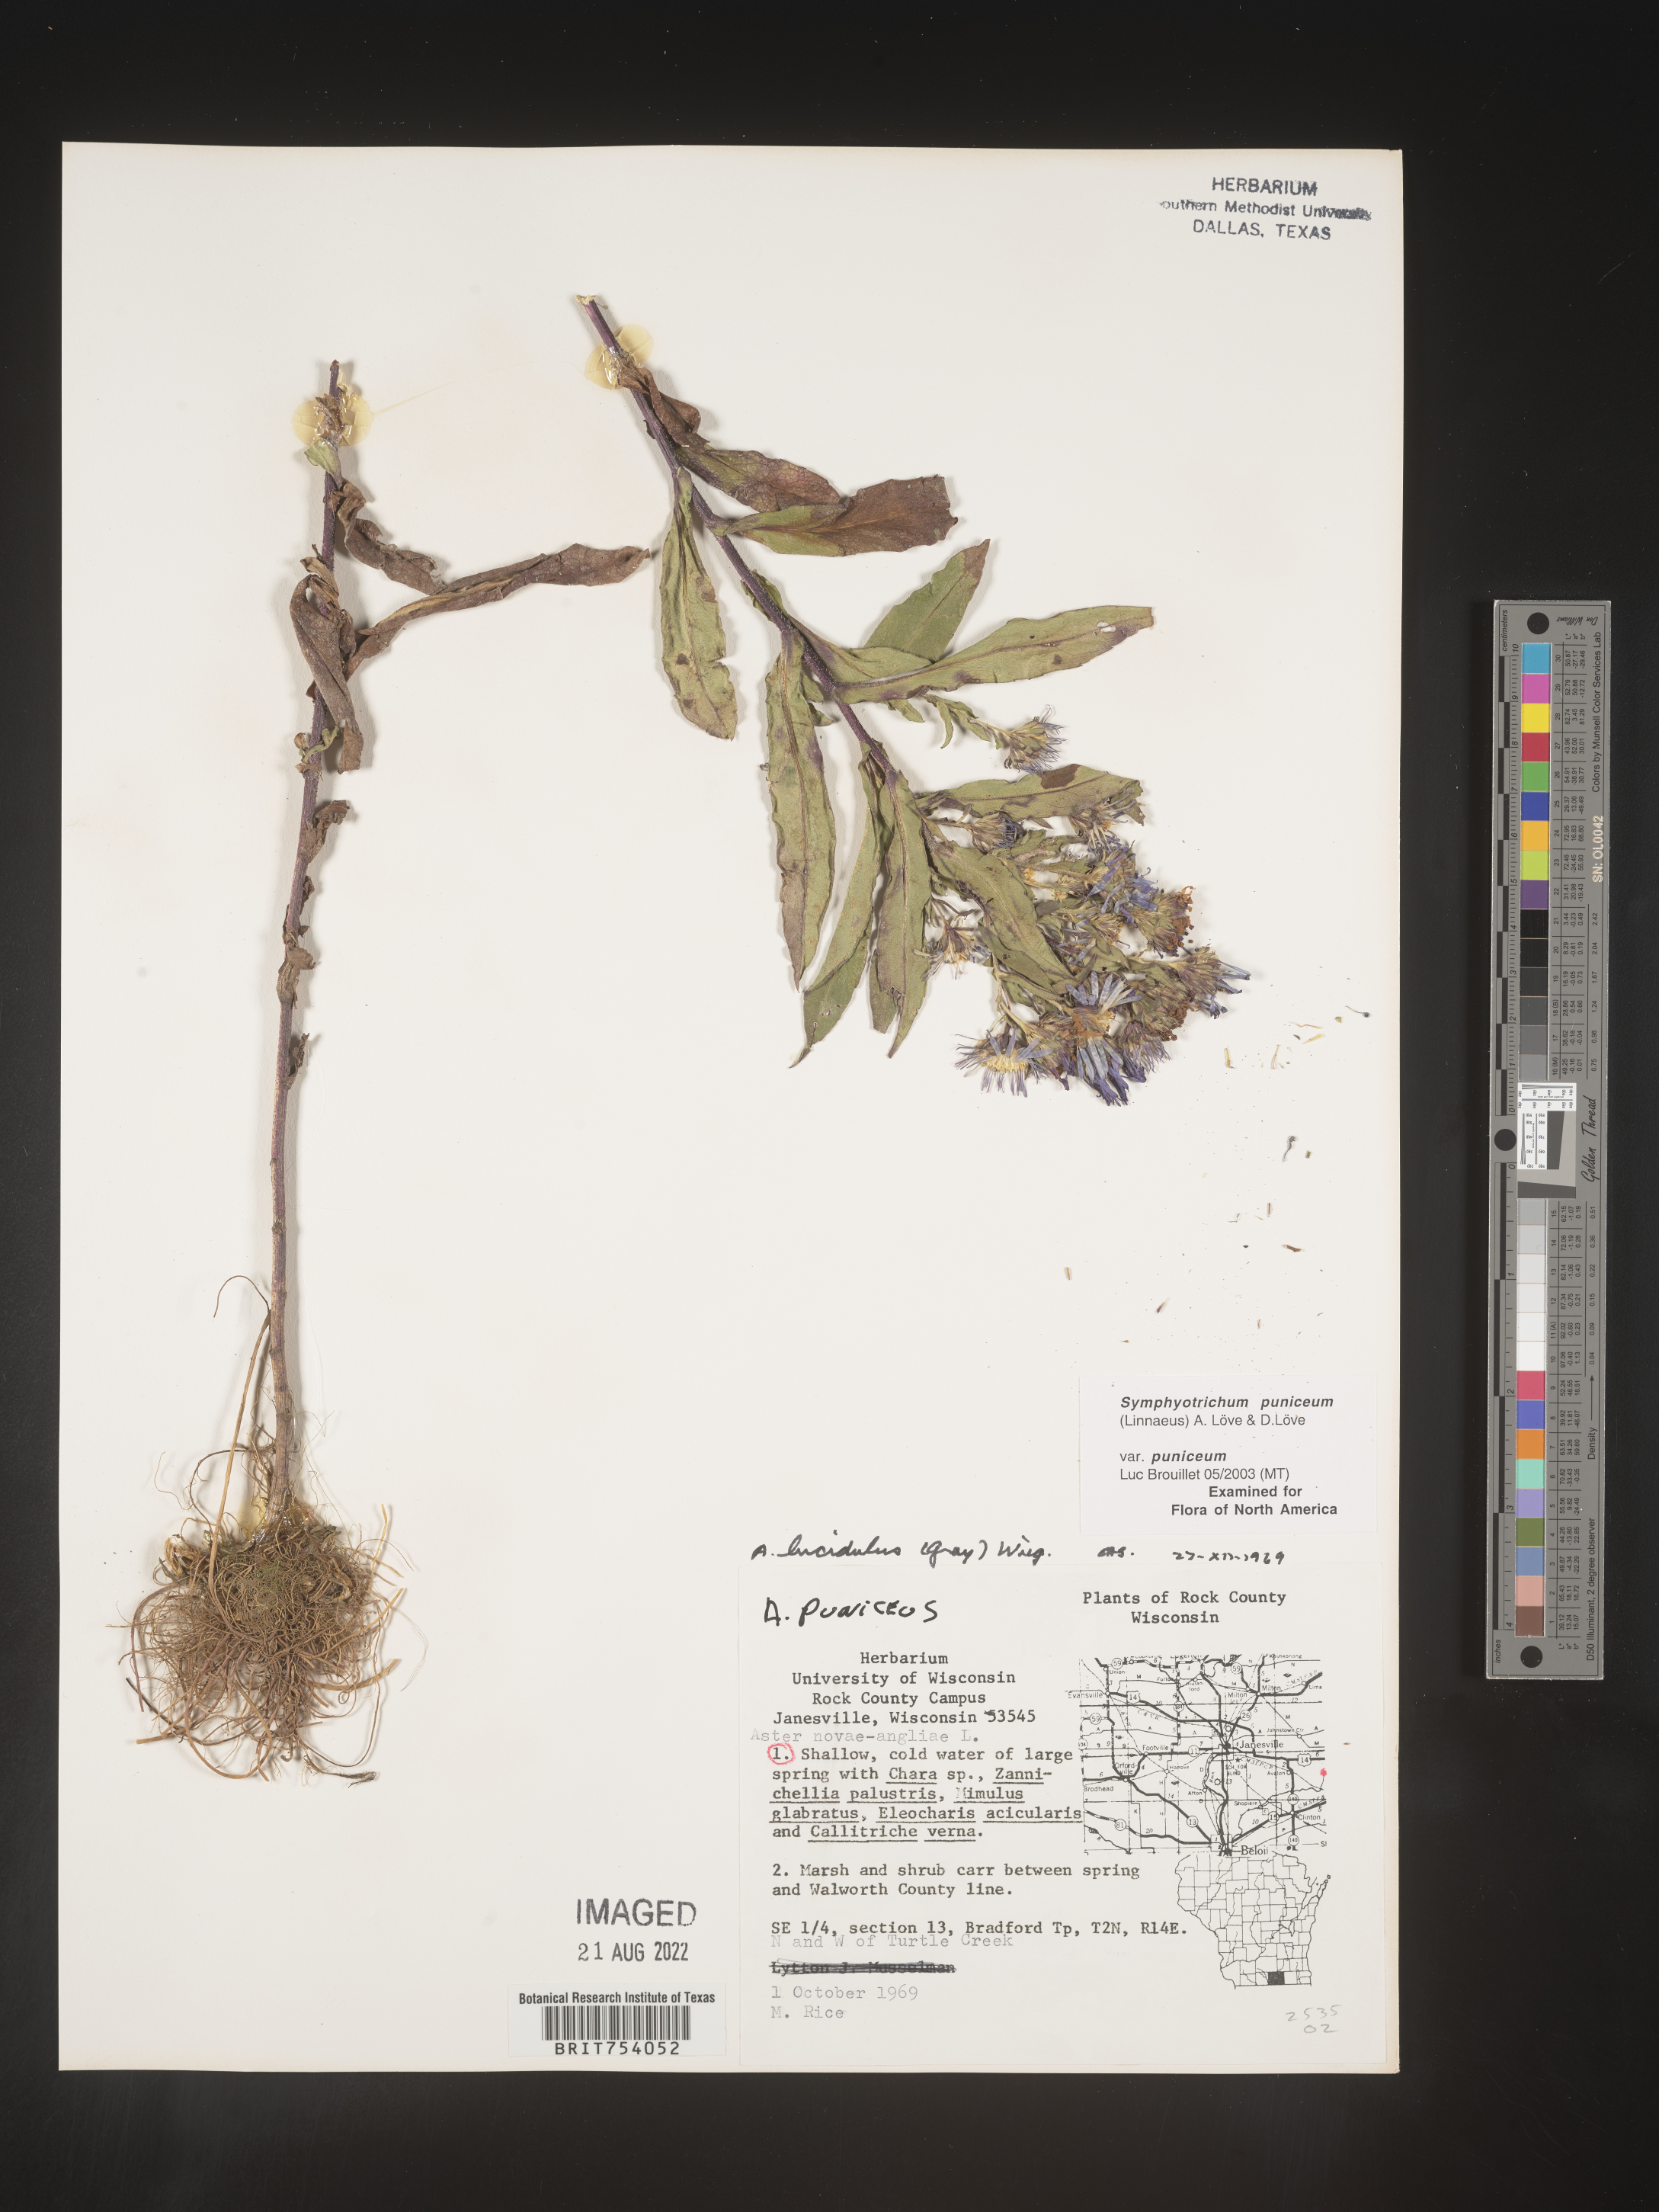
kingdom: Plantae
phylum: Tracheophyta
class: Magnoliopsida
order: Asterales
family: Asteraceae
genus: Symphyotrichum
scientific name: Symphyotrichum puniceum
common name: Bog aster
